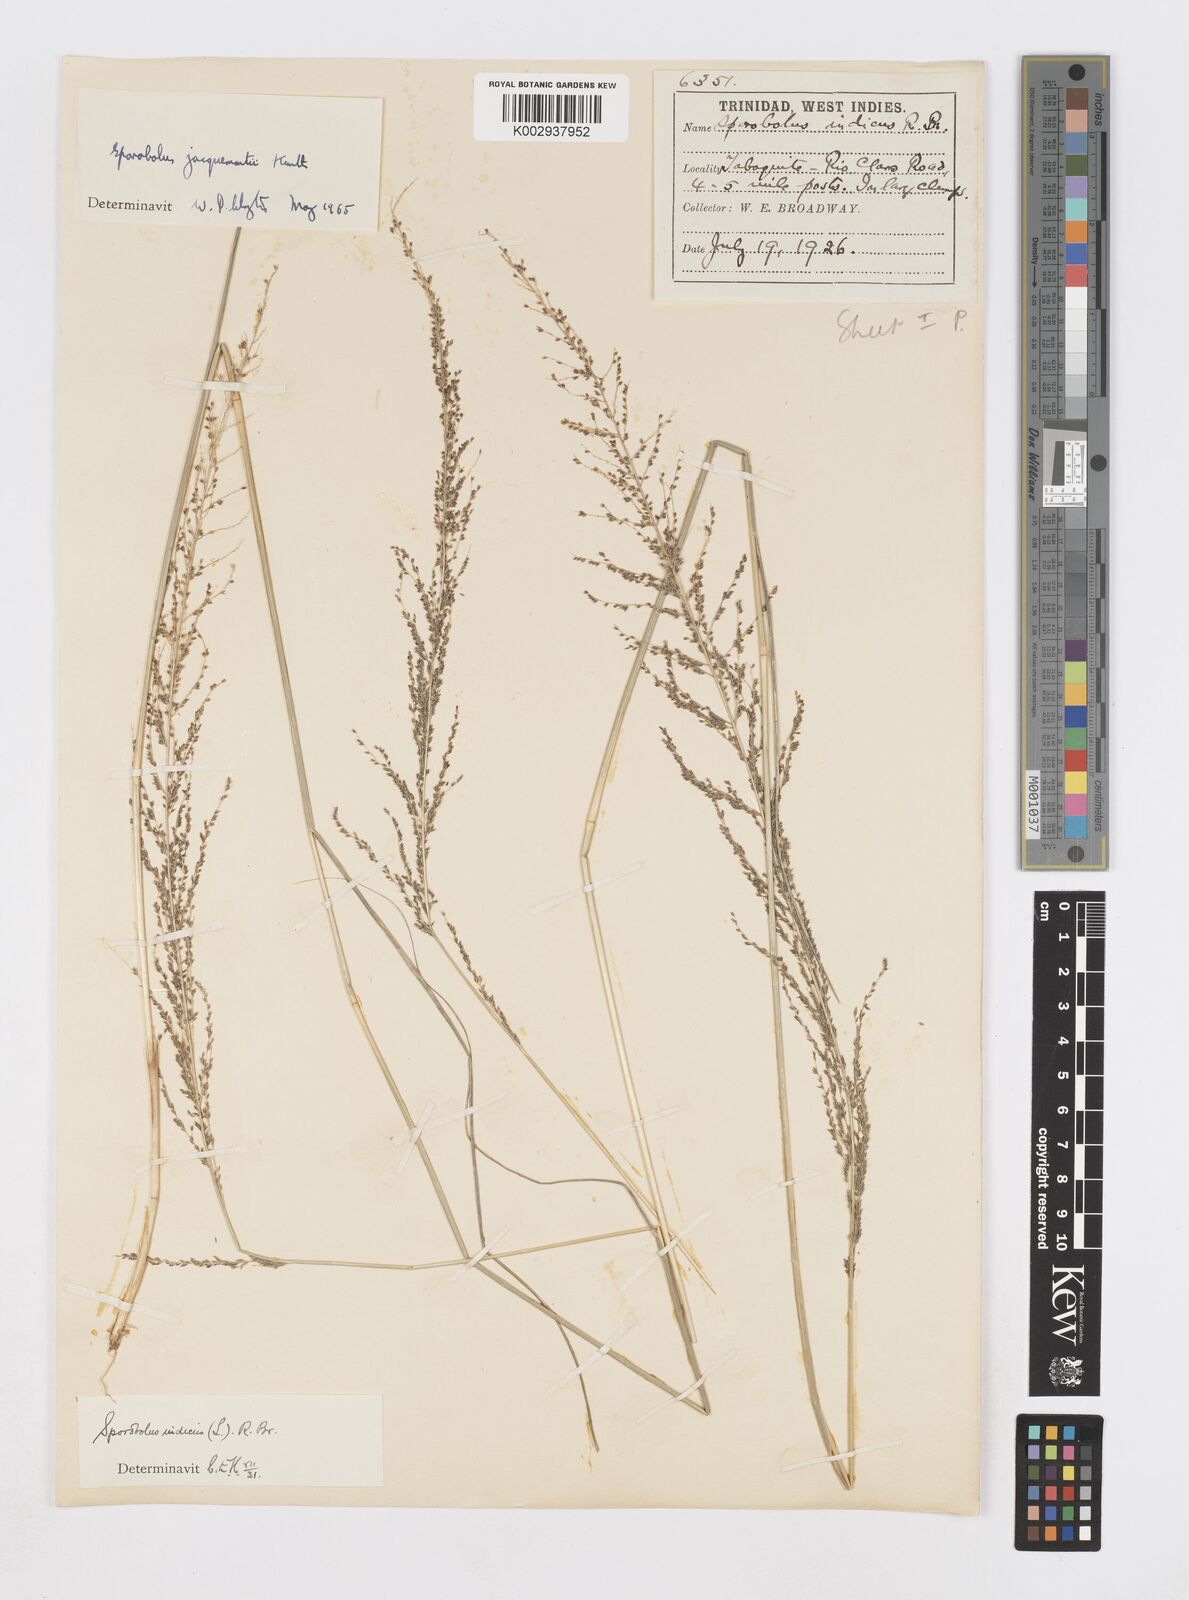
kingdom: Plantae
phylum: Tracheophyta
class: Liliopsida
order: Poales
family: Poaceae
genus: Sporobolus
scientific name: Sporobolus pyramidalis
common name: West indian dropseed
